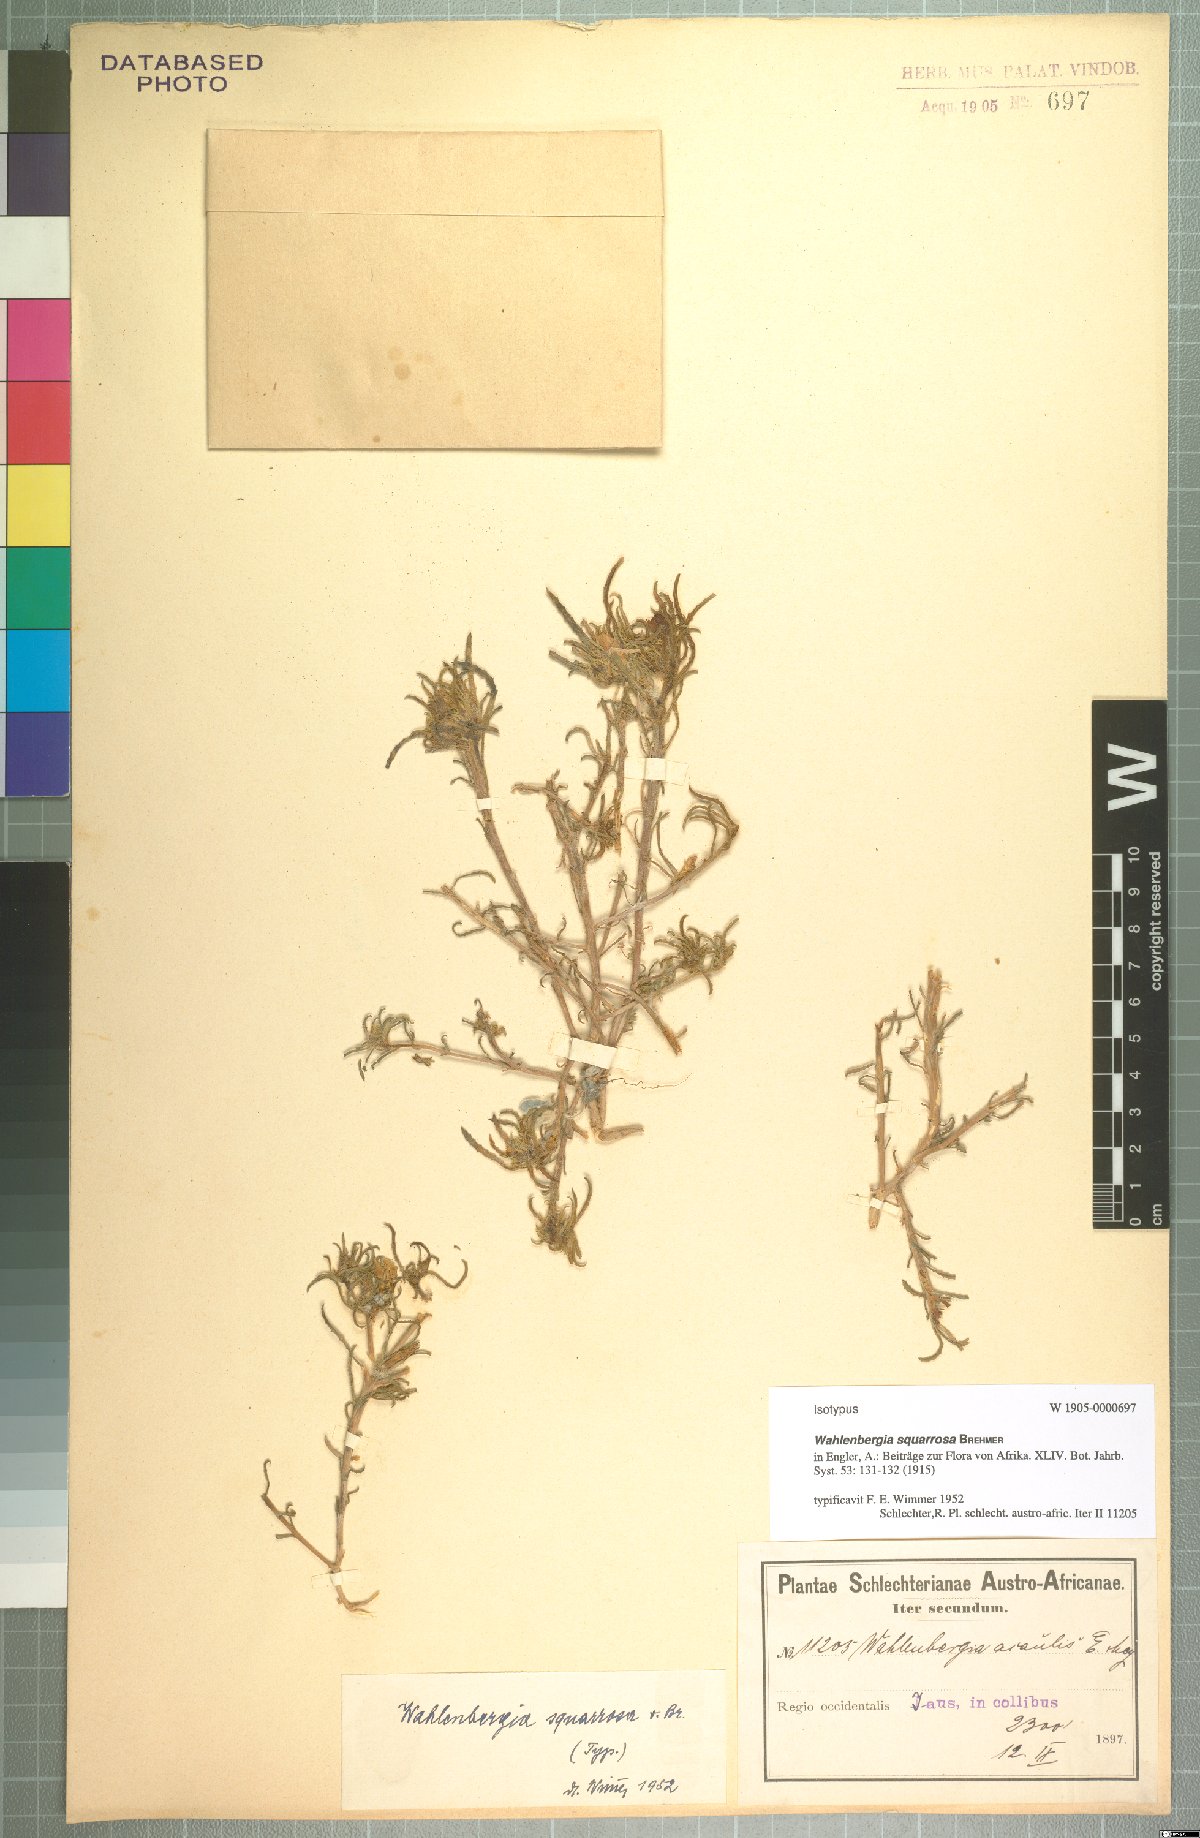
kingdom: Plantae
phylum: Tracheophyta
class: Magnoliopsida
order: Asterales
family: Campanulaceae
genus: Wahlenbergia
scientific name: Wahlenbergia squarrosa
